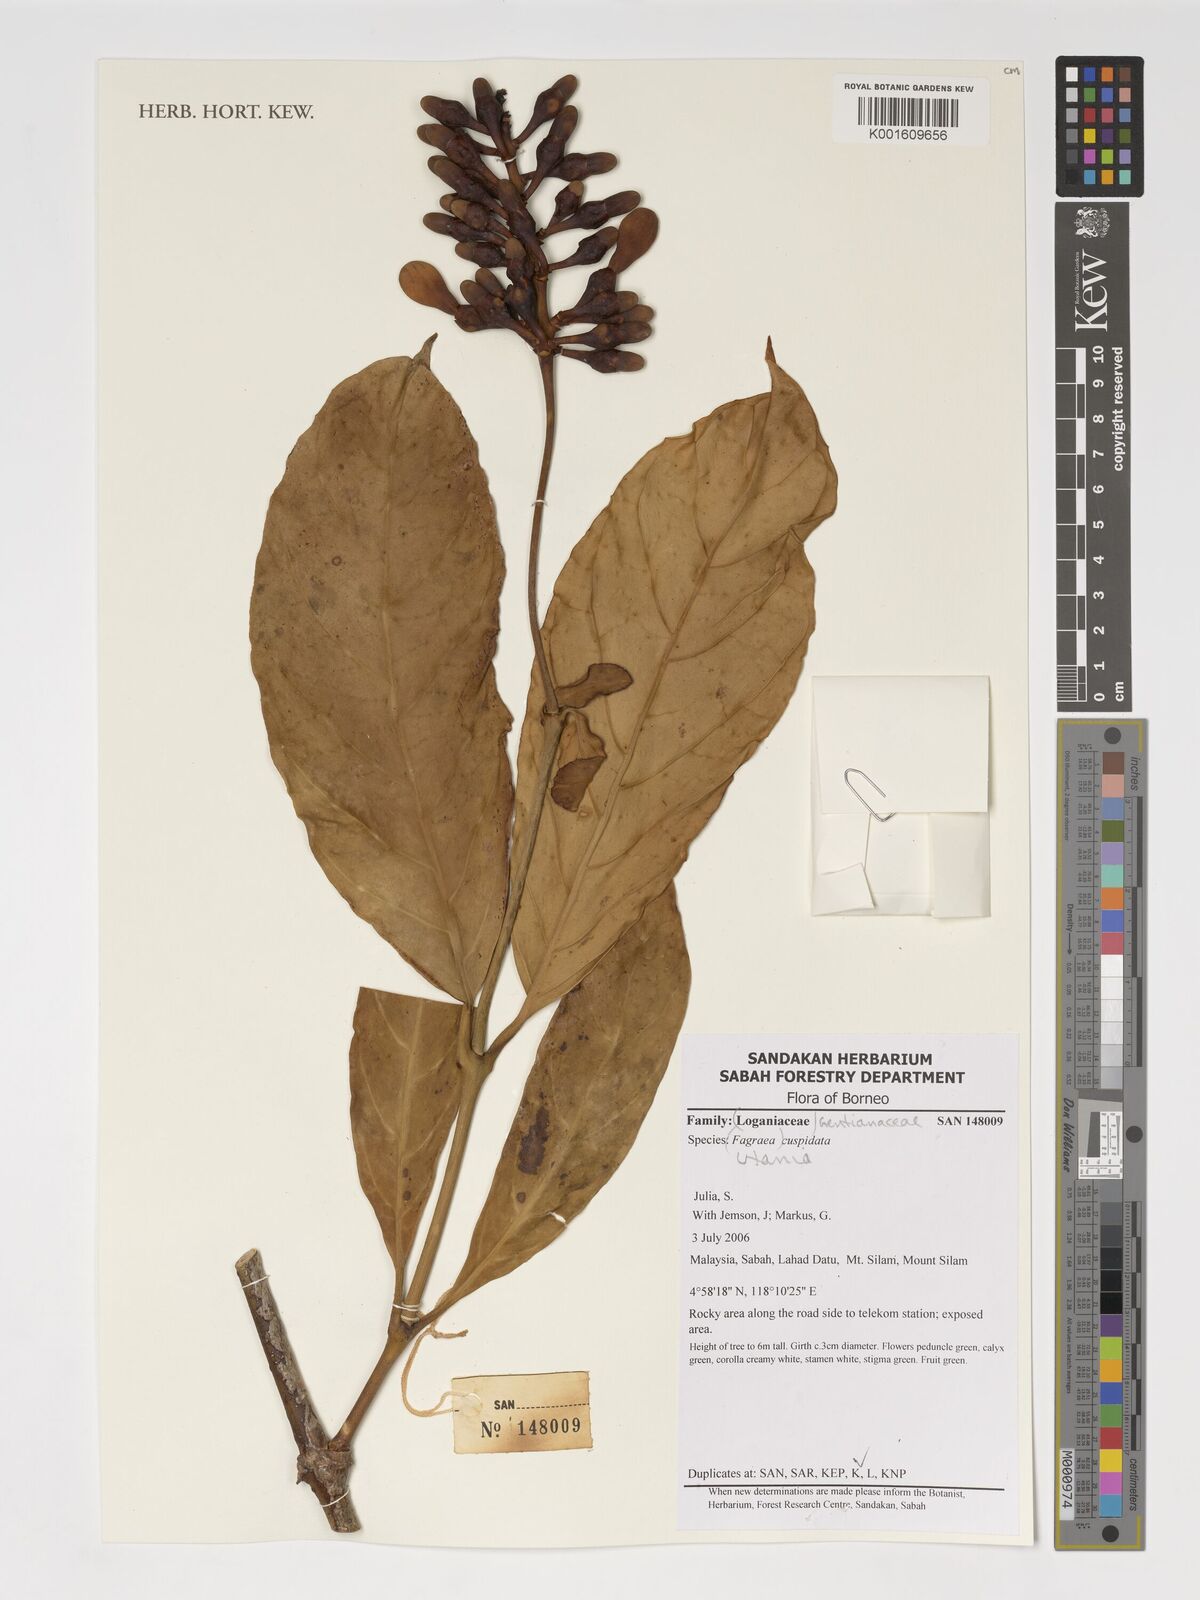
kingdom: Plantae
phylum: Tracheophyta
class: Magnoliopsida
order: Gentianales
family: Gentianaceae
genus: Utania
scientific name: Utania cuspidata
